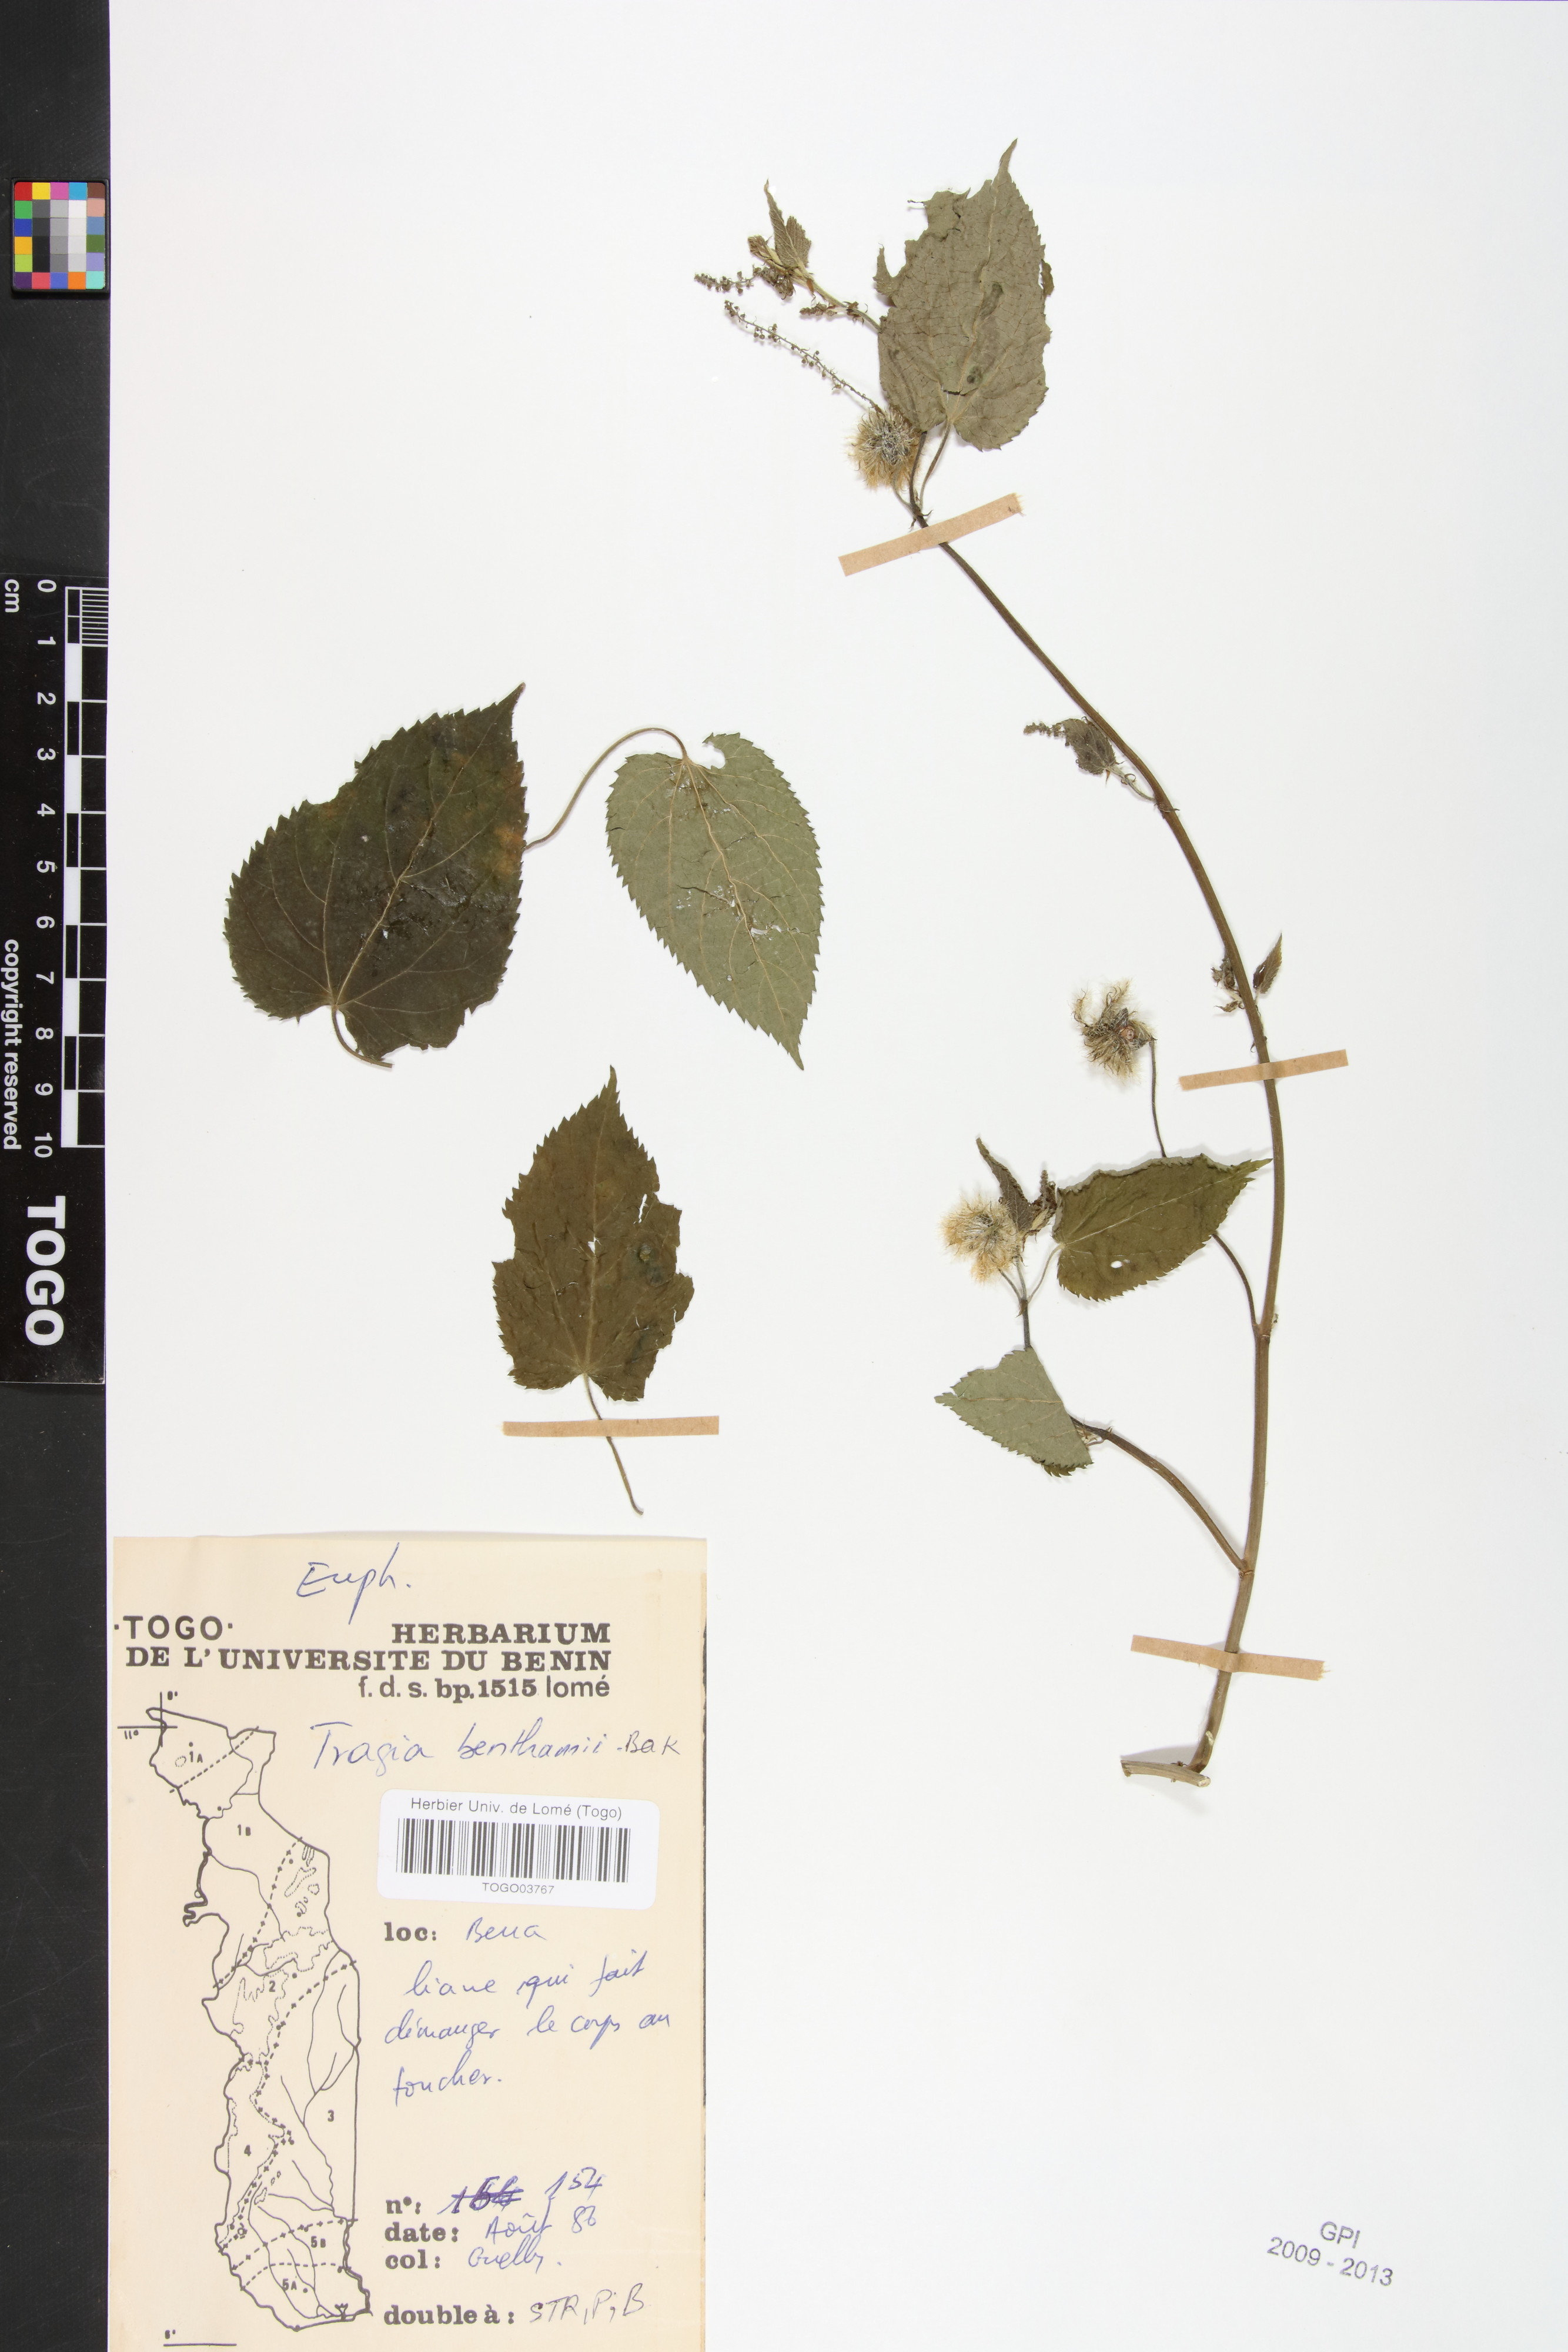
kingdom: Plantae
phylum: Tracheophyta
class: Magnoliopsida
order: Malpighiales
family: Euphorbiaceae
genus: Tragia
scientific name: Tragia benthamii
